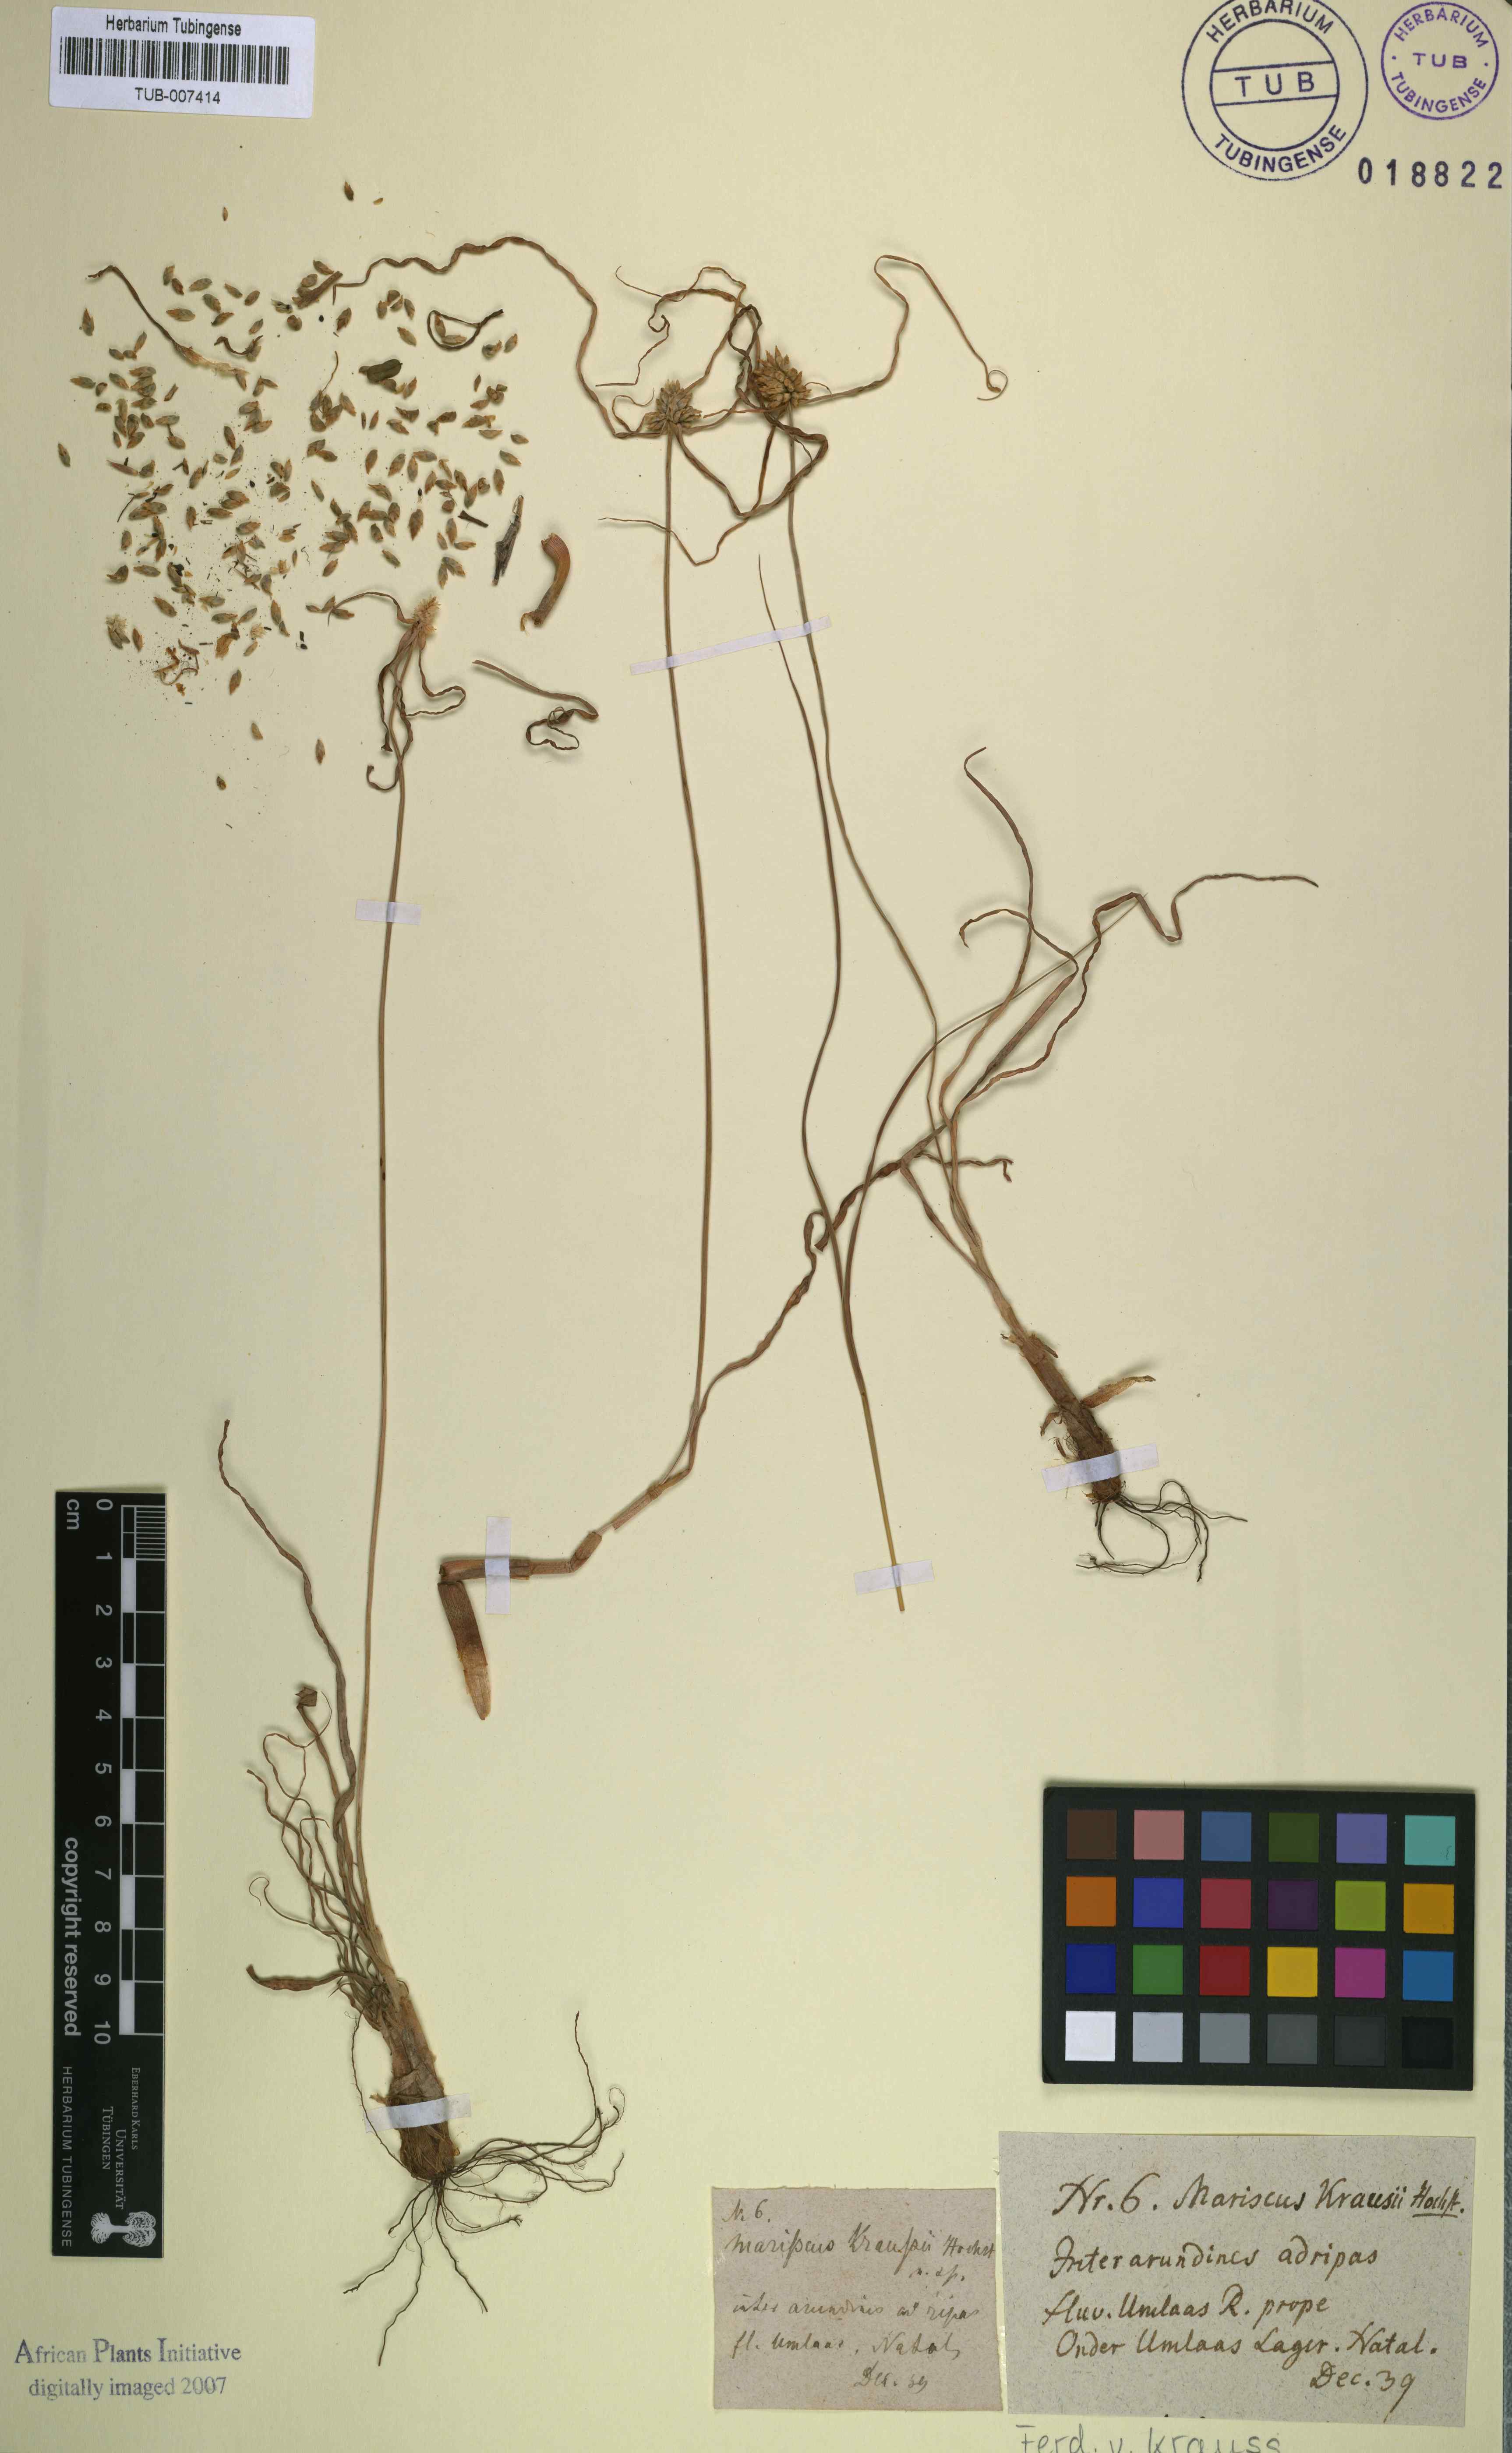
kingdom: Plantae
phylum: Tracheophyta
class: Liliopsida
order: Poales
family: Cyperaceae
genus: Cyperus
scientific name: Cyperus dubius
